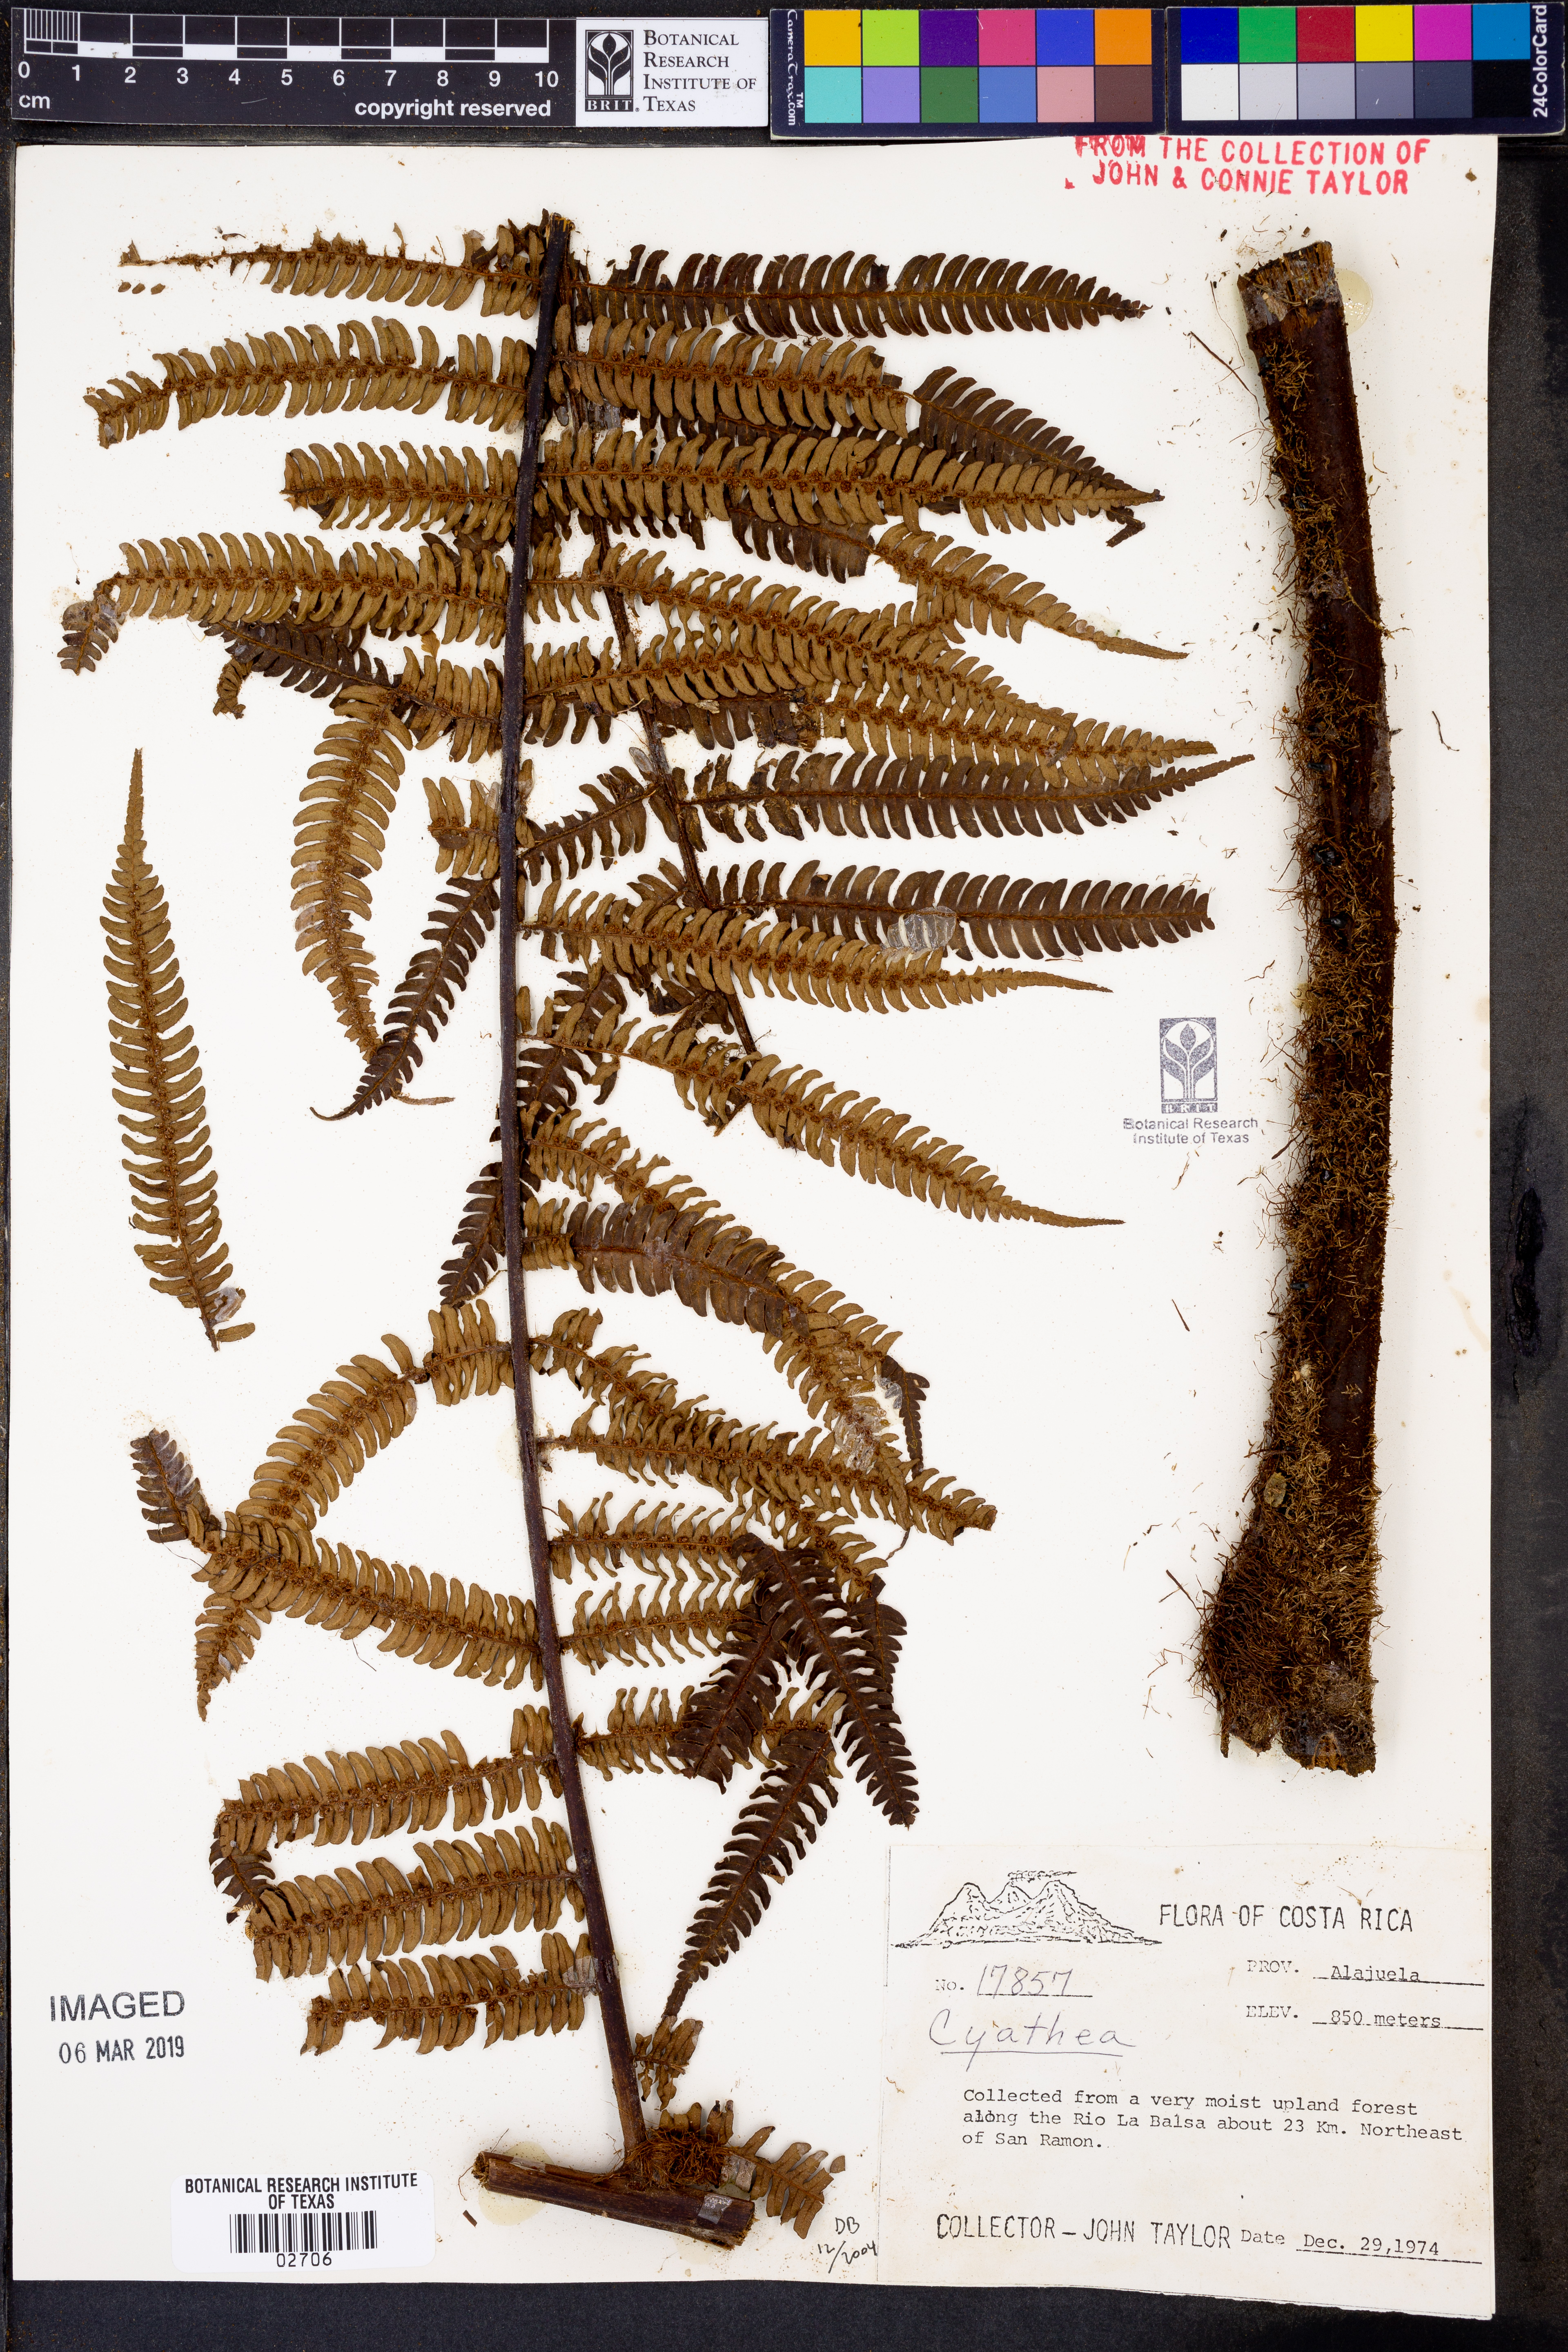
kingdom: Plantae
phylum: Tracheophyta
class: Polypodiopsida
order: Cyatheales
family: Cyatheaceae
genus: Cyathea
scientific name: Cyathea
